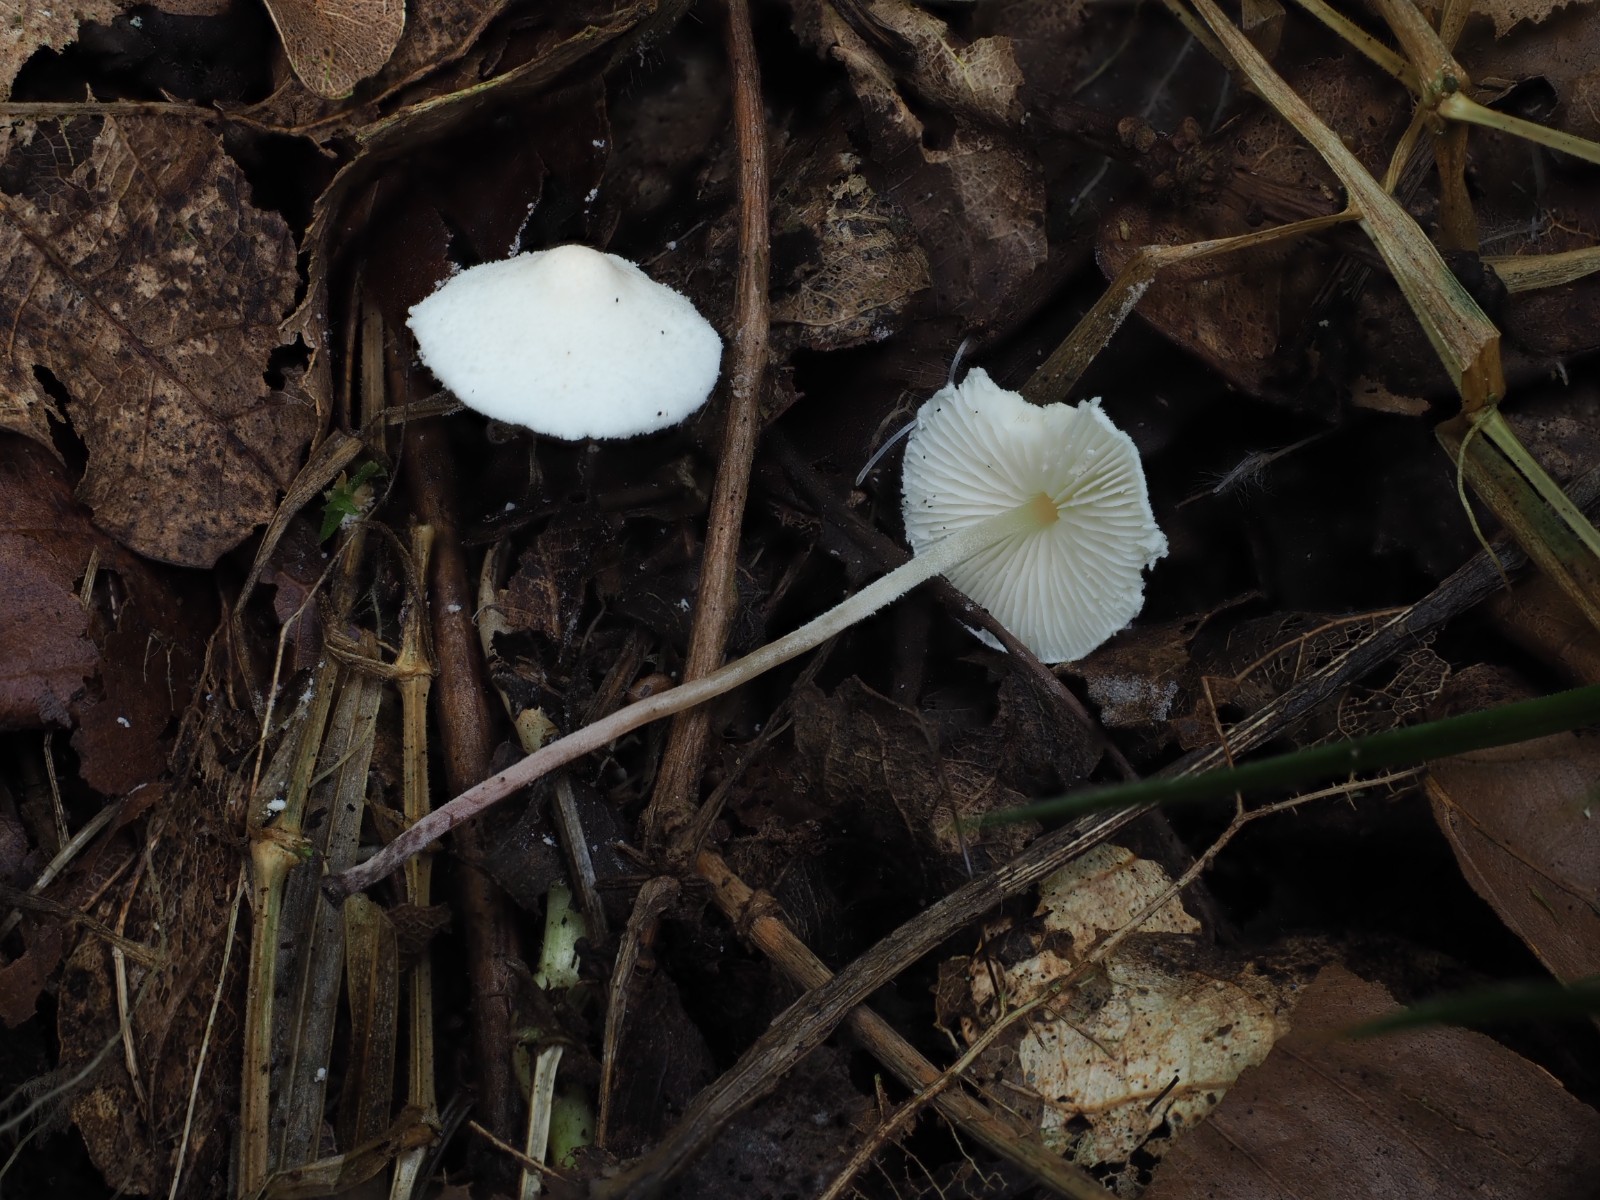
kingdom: Fungi
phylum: Basidiomycota
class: Agaricomycetes
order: Agaricales
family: Agaricaceae
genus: Cystolepiota
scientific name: Cystolepiota seminuda
